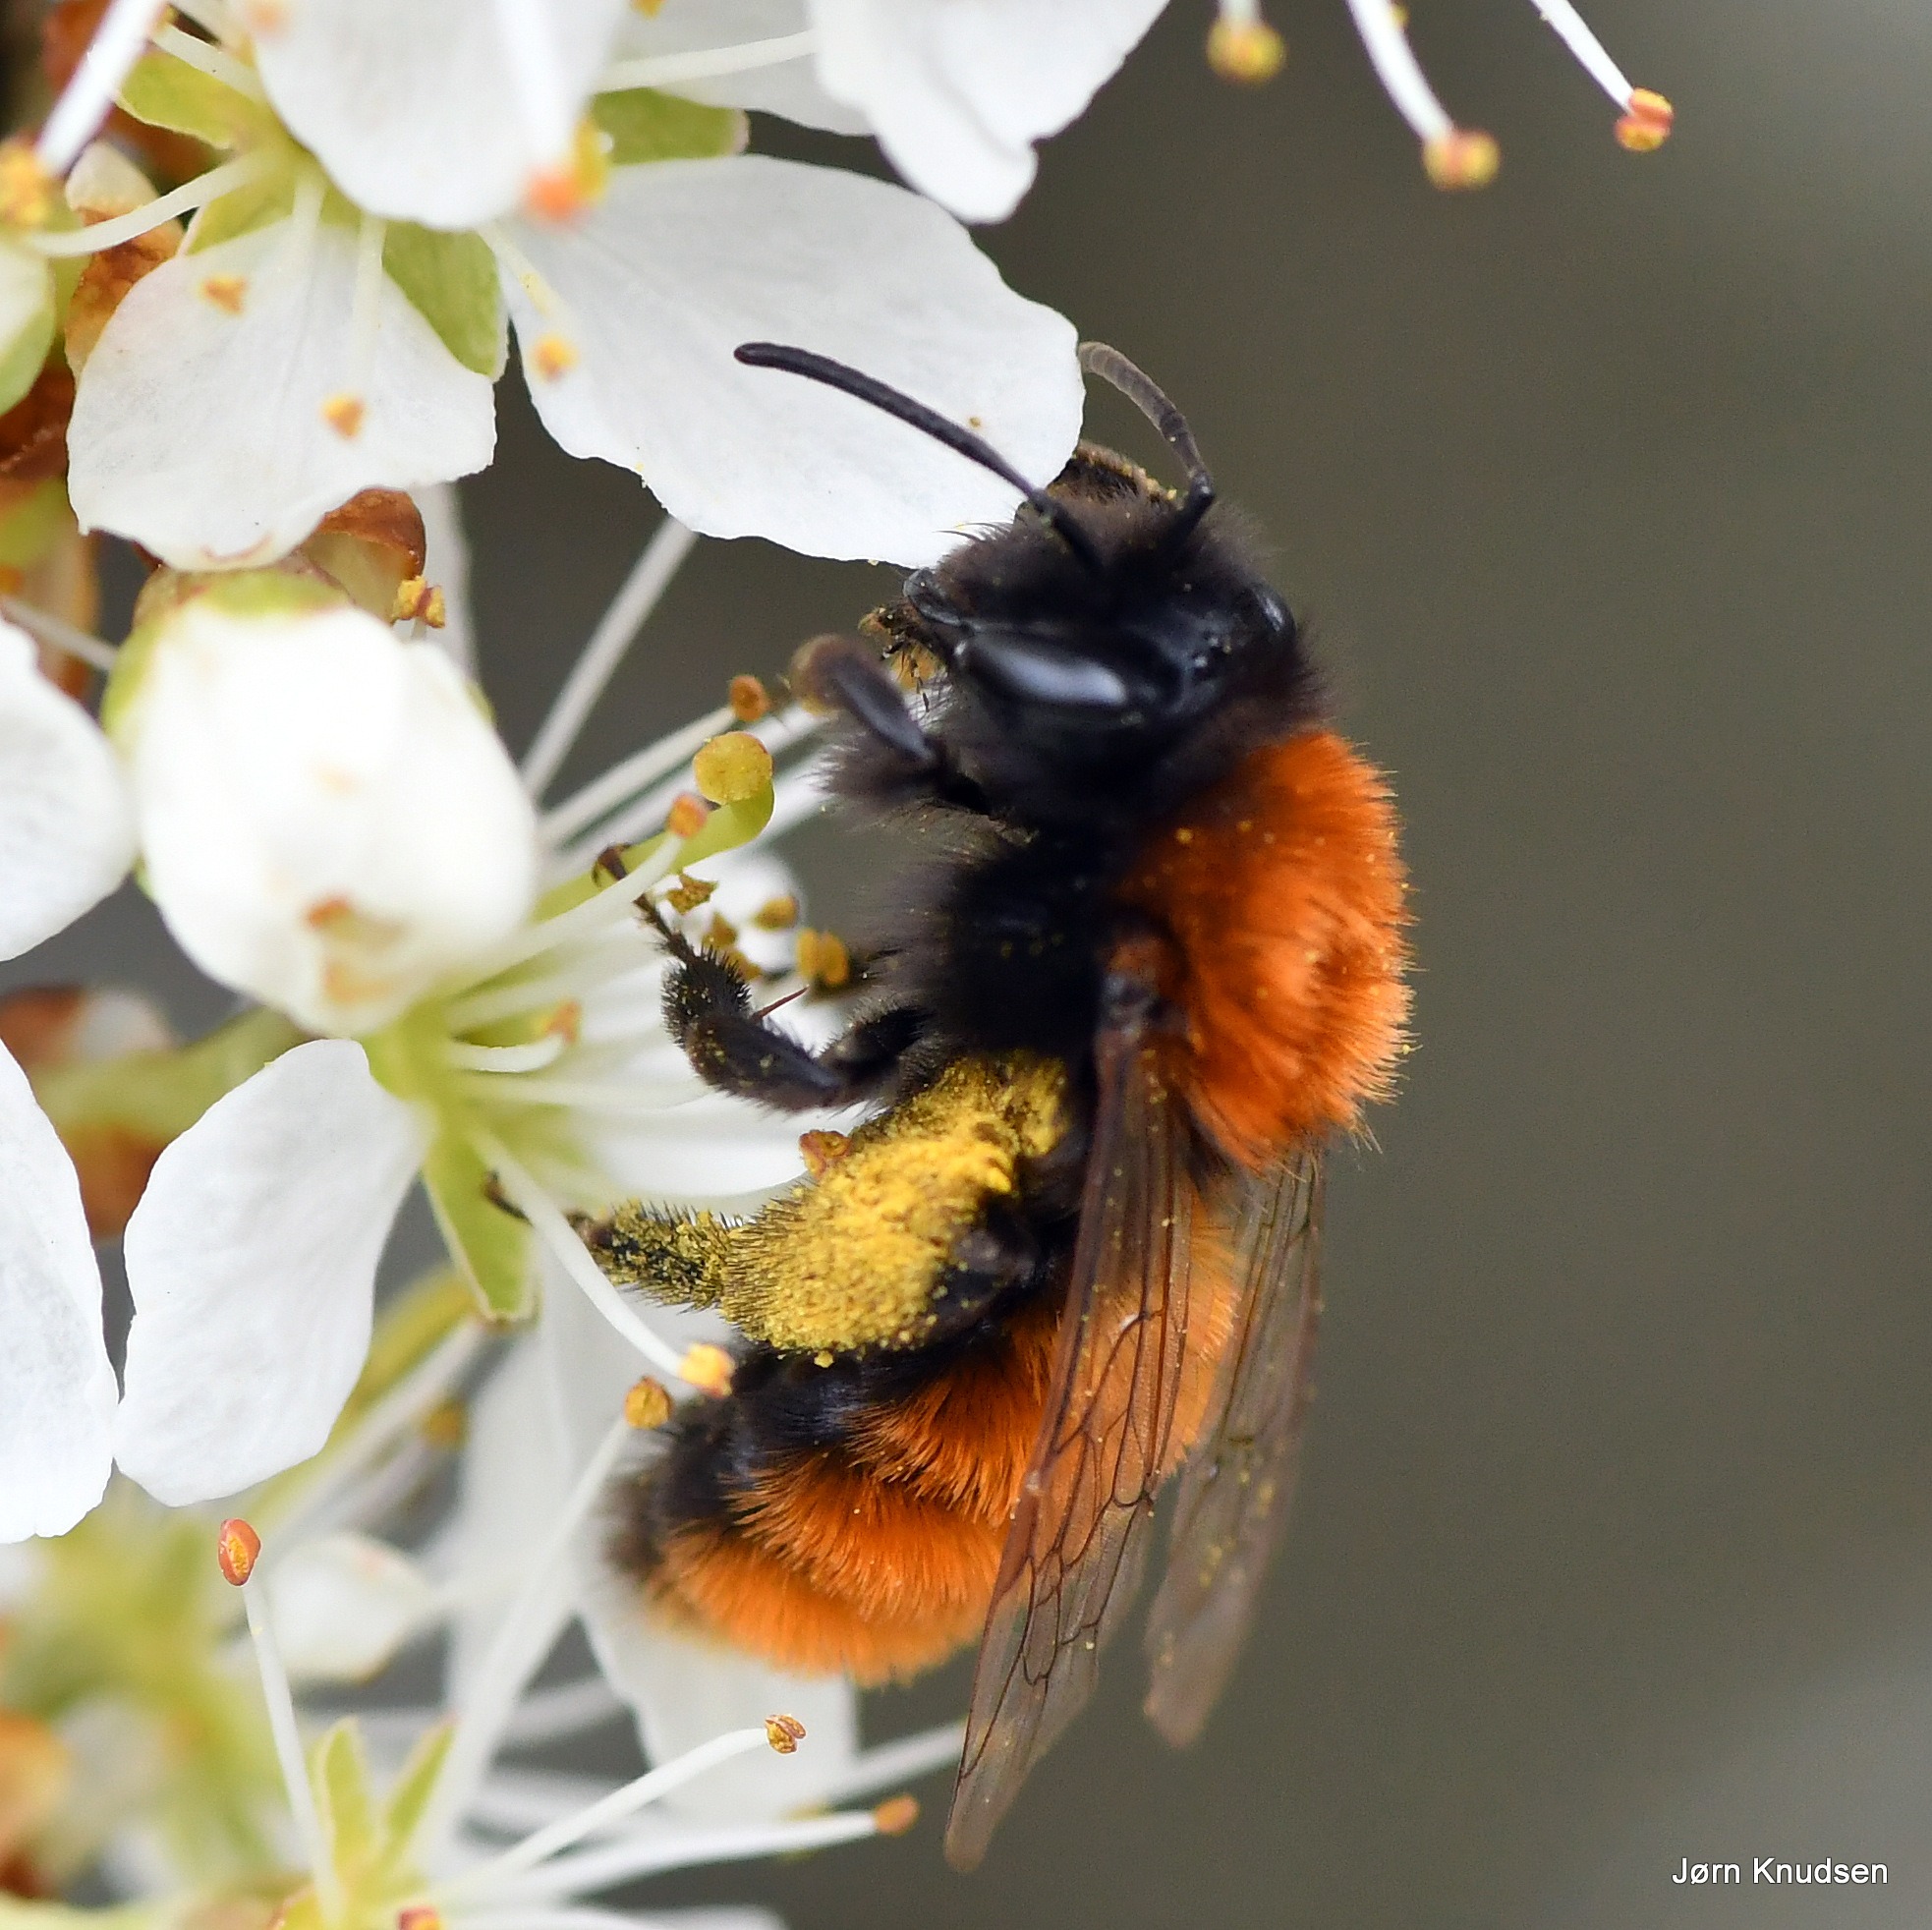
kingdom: Animalia
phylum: Arthropoda
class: Insecta
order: Hymenoptera
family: Andrenidae
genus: Andrena
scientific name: Andrena fulva
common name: Rødpelset jordbi
